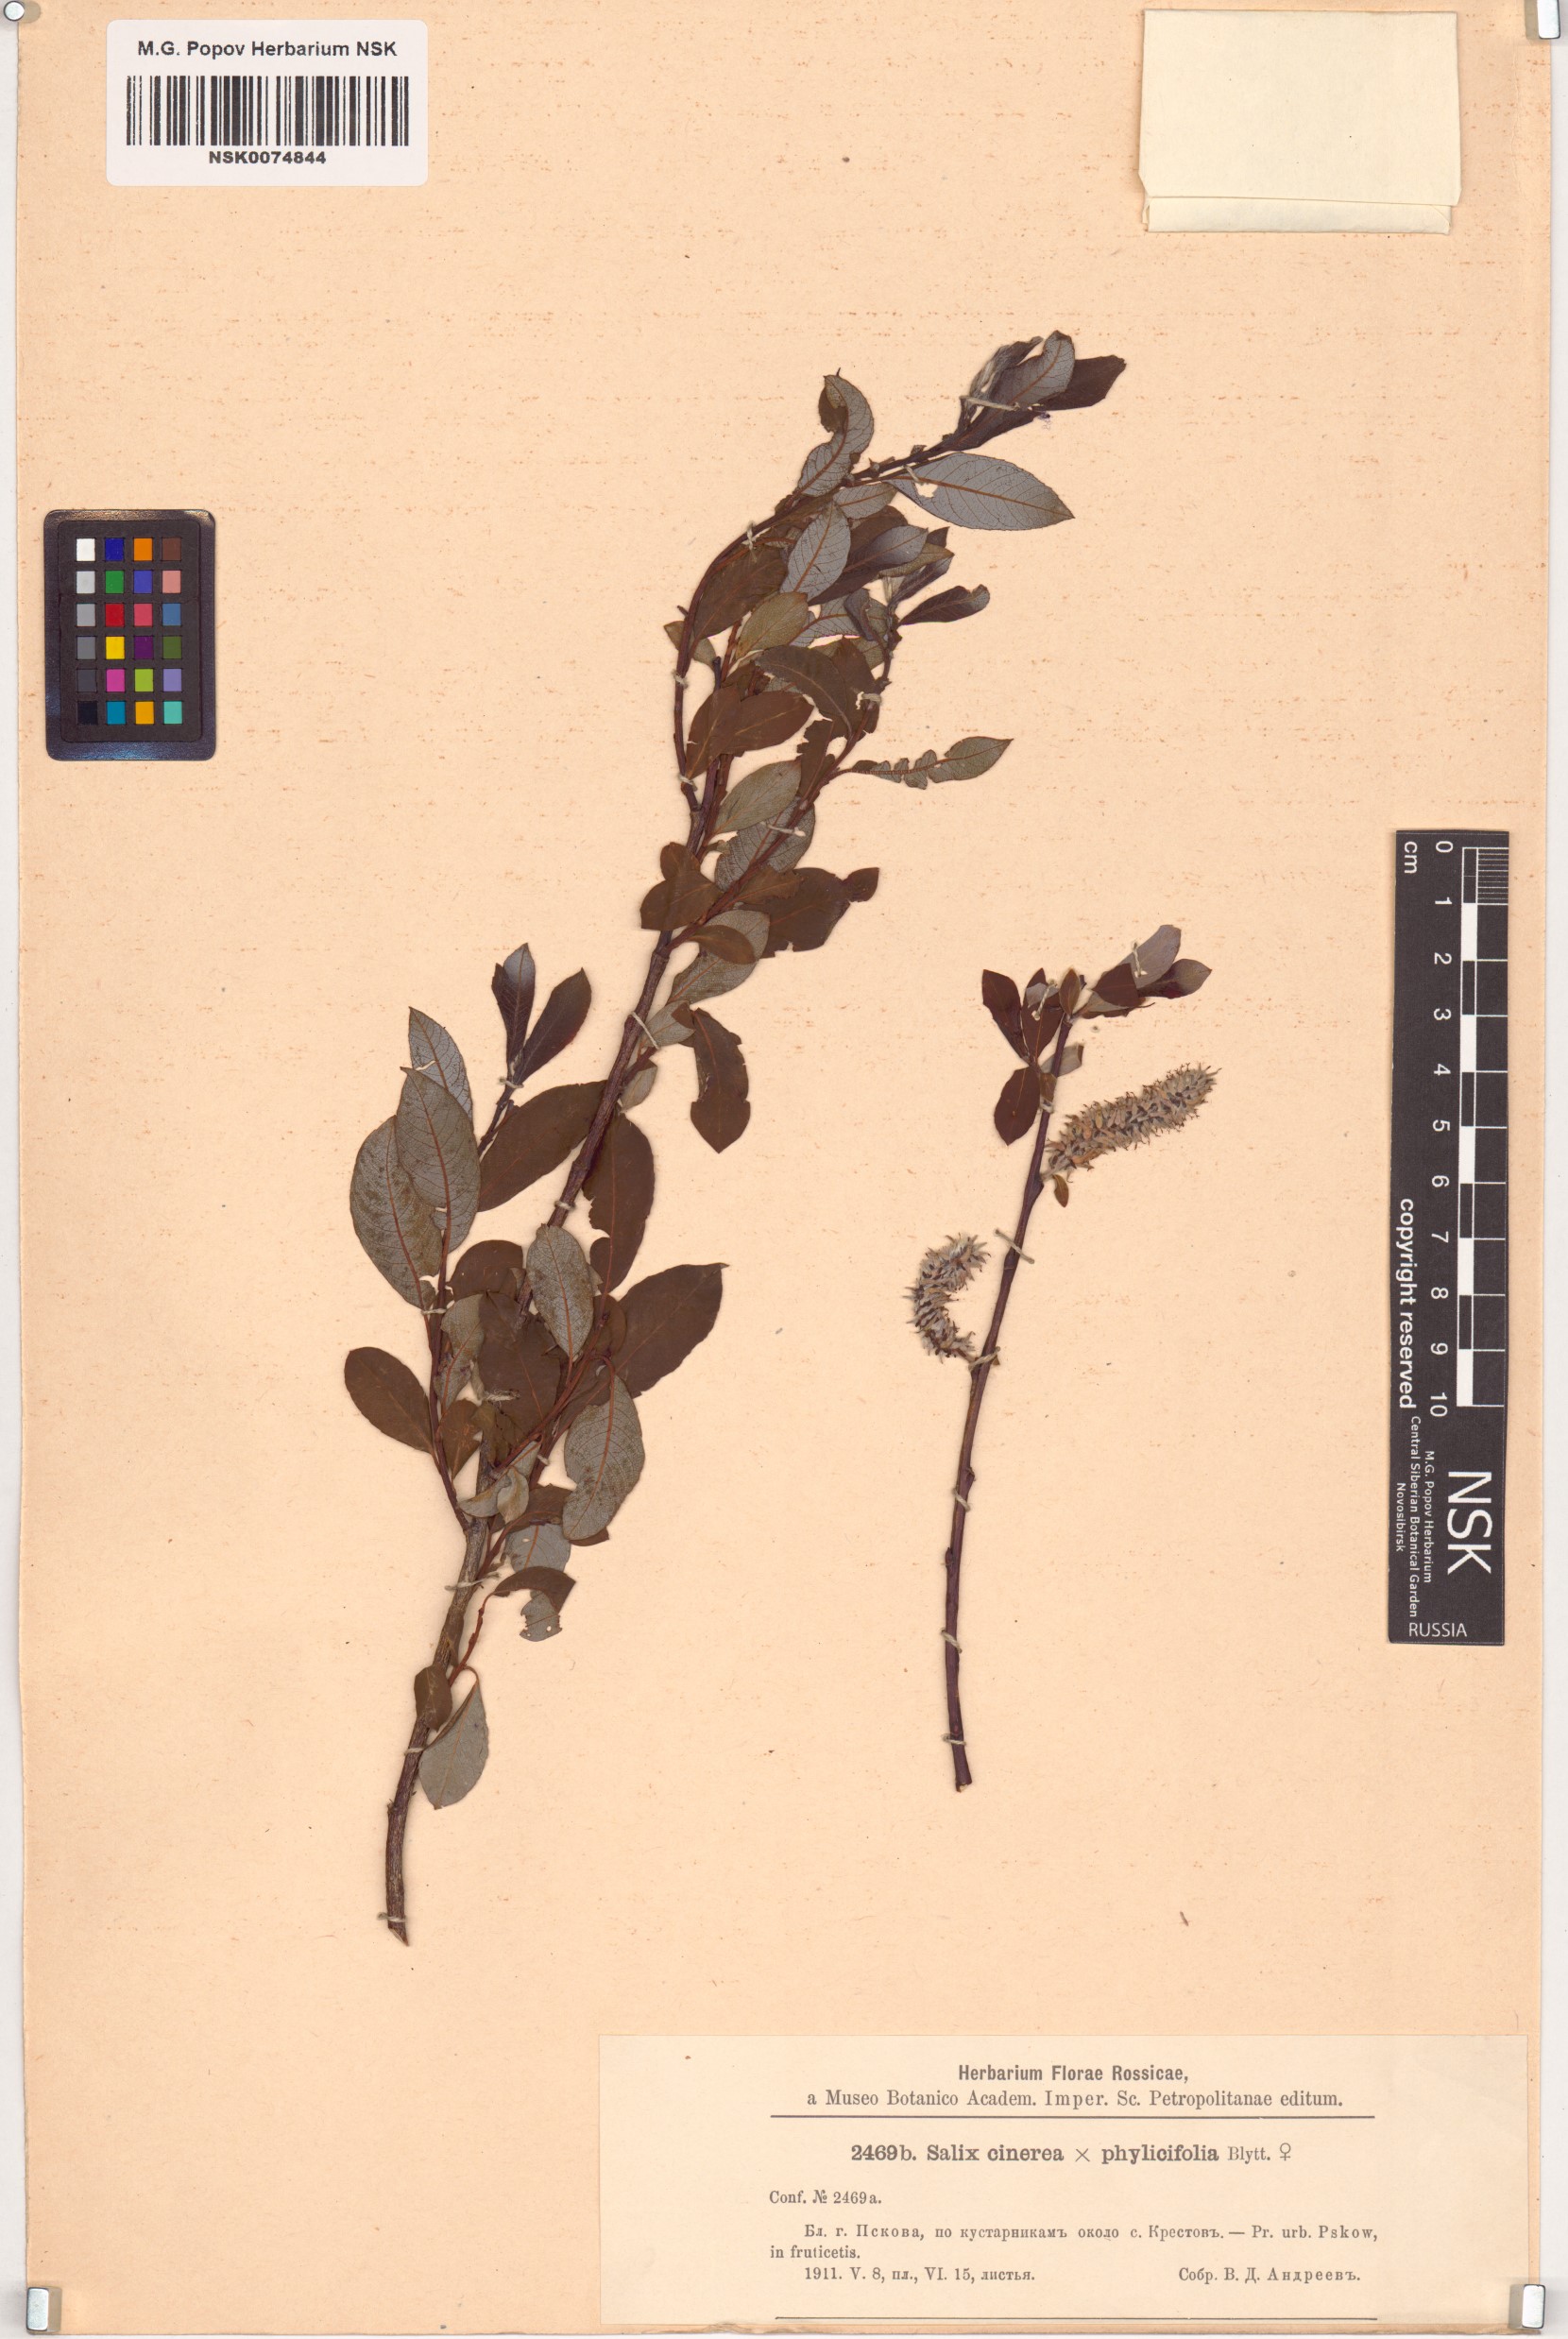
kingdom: Plantae
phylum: Tracheophyta
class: Magnoliopsida
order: Malpighiales
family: Salicaceae
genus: Salix
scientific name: Salix
